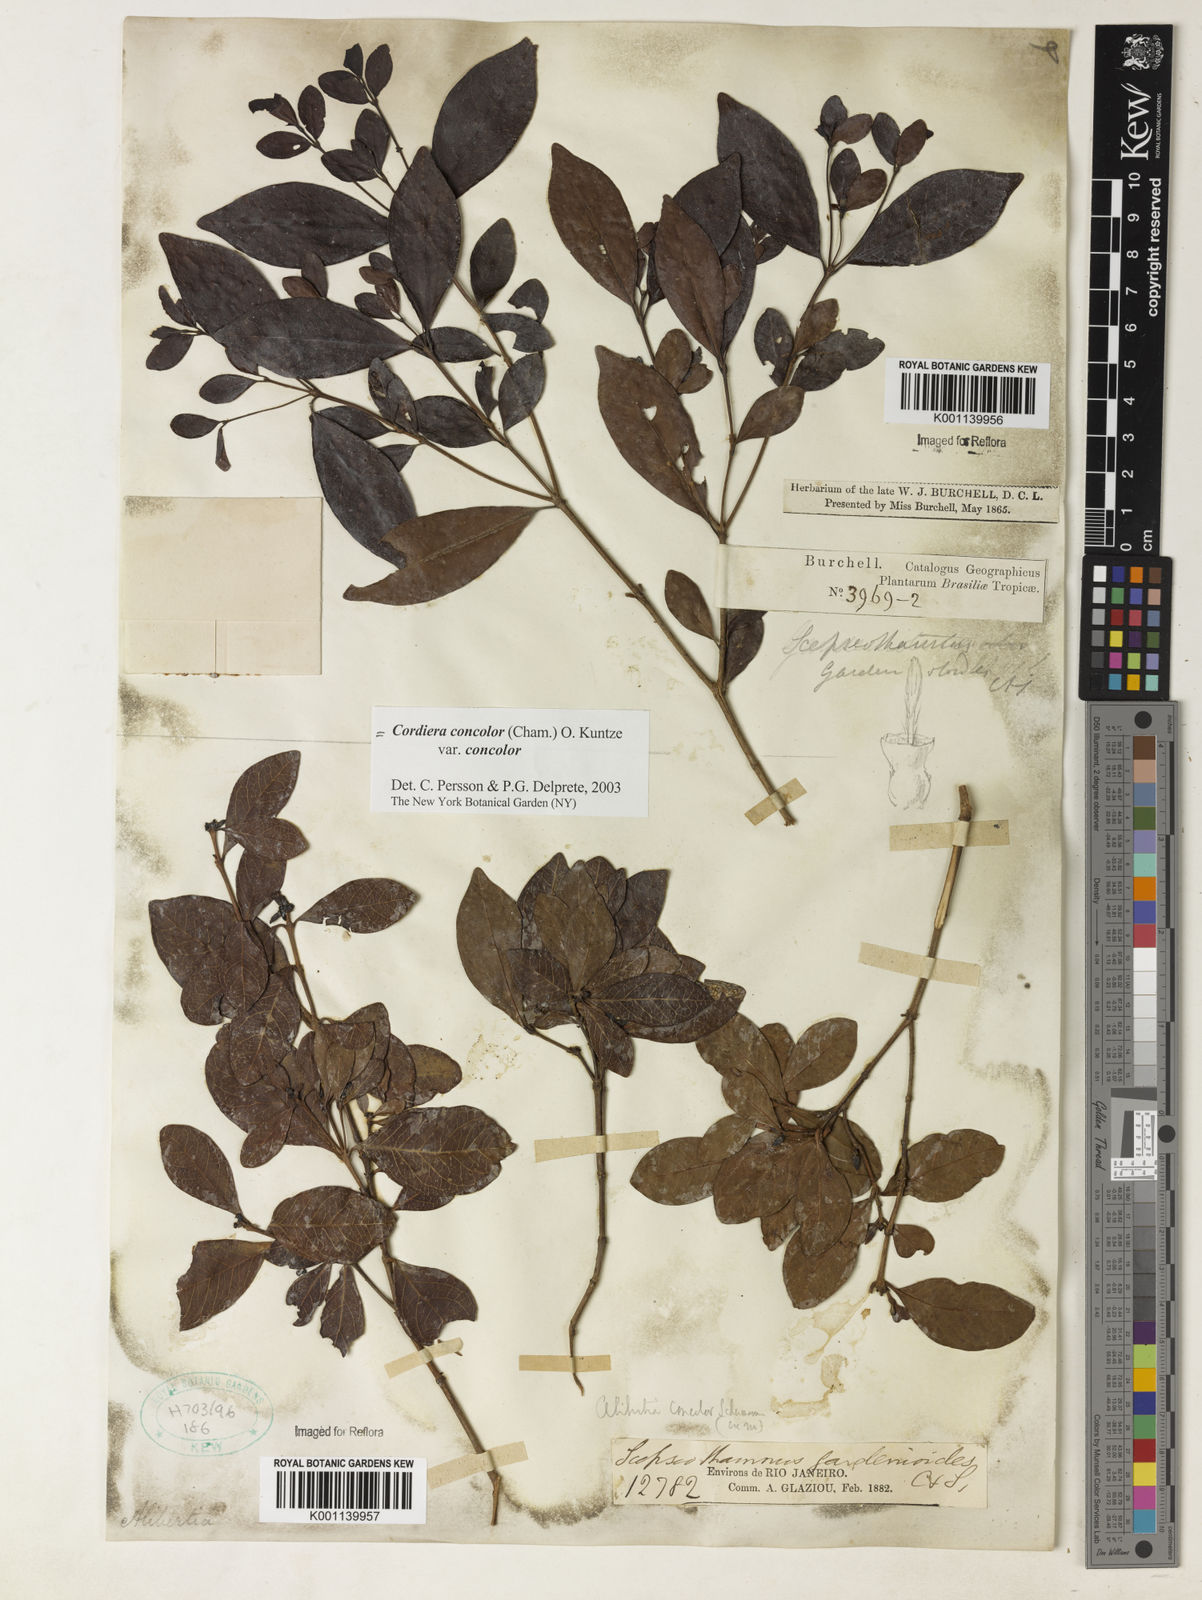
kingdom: Plantae
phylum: Tracheophyta
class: Magnoliopsida
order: Gentianales
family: Rubiaceae
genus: Cordiera
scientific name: Cordiera concolor
